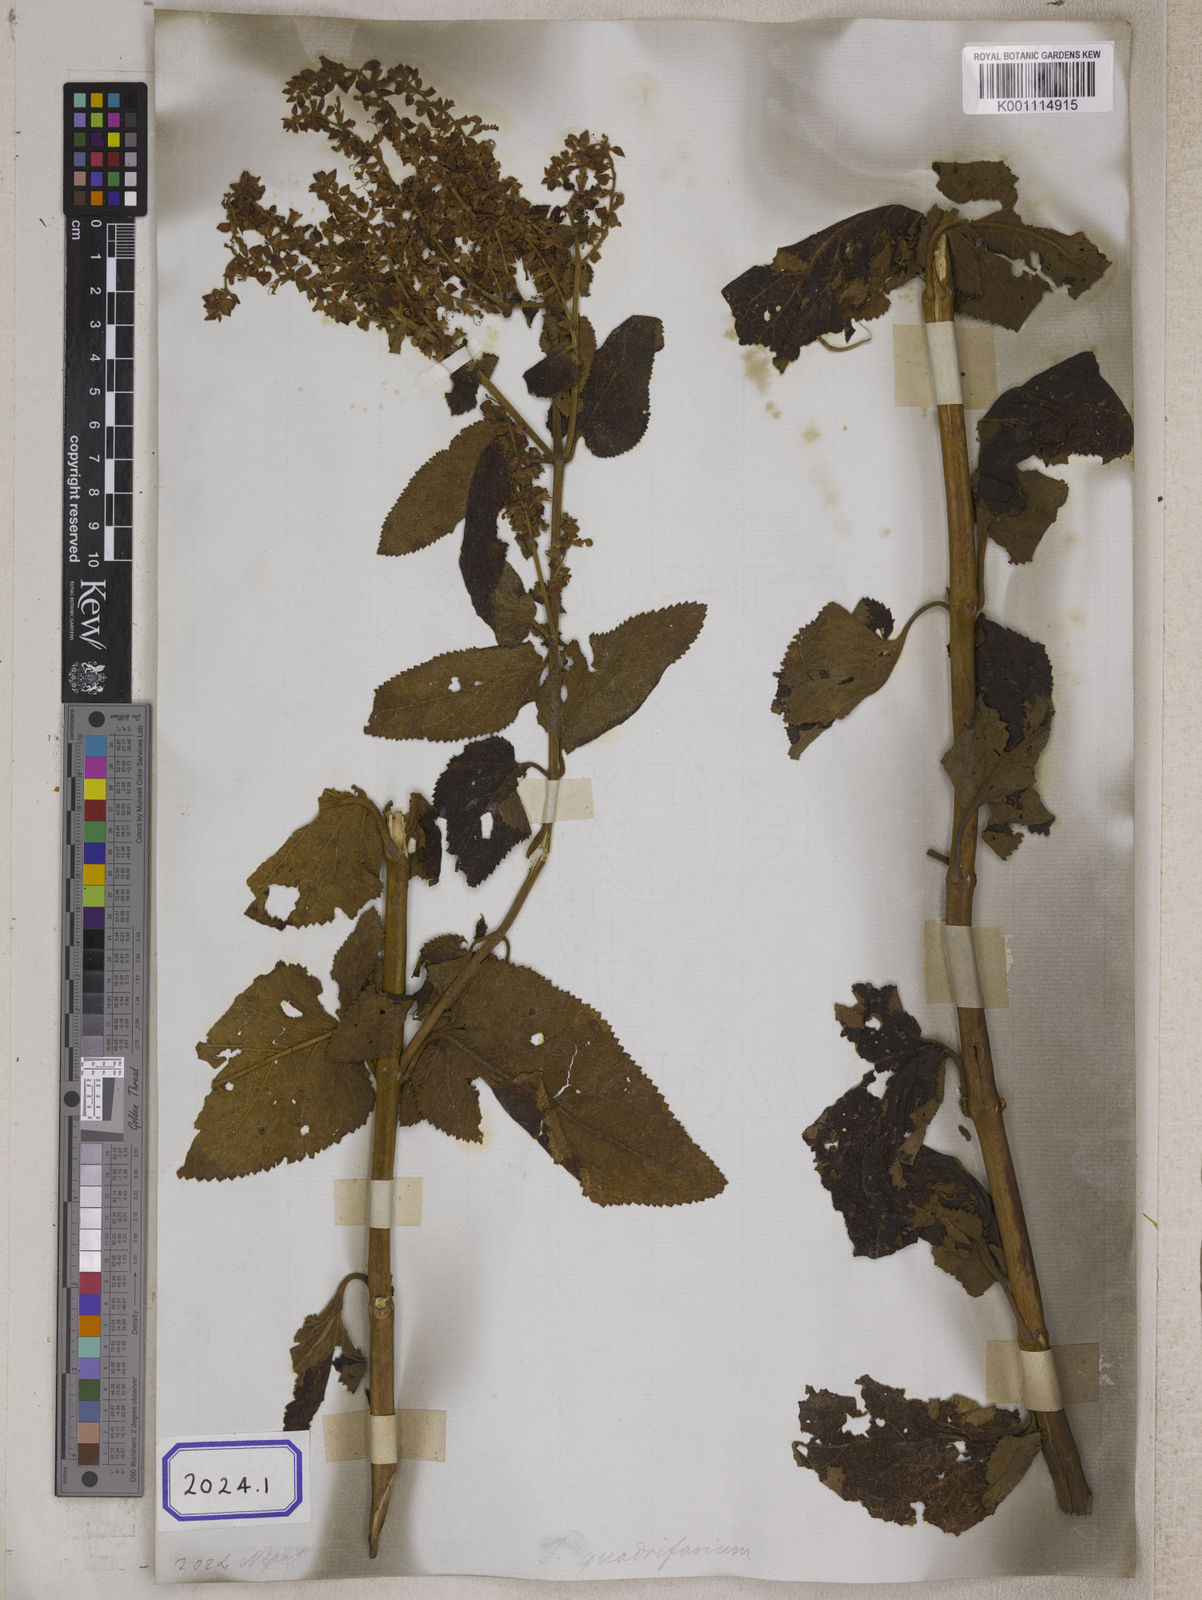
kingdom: Plantae
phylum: Tracheophyta
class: Magnoliopsida
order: Lamiales
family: Lamiaceae
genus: Teucrium
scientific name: Teucrium
